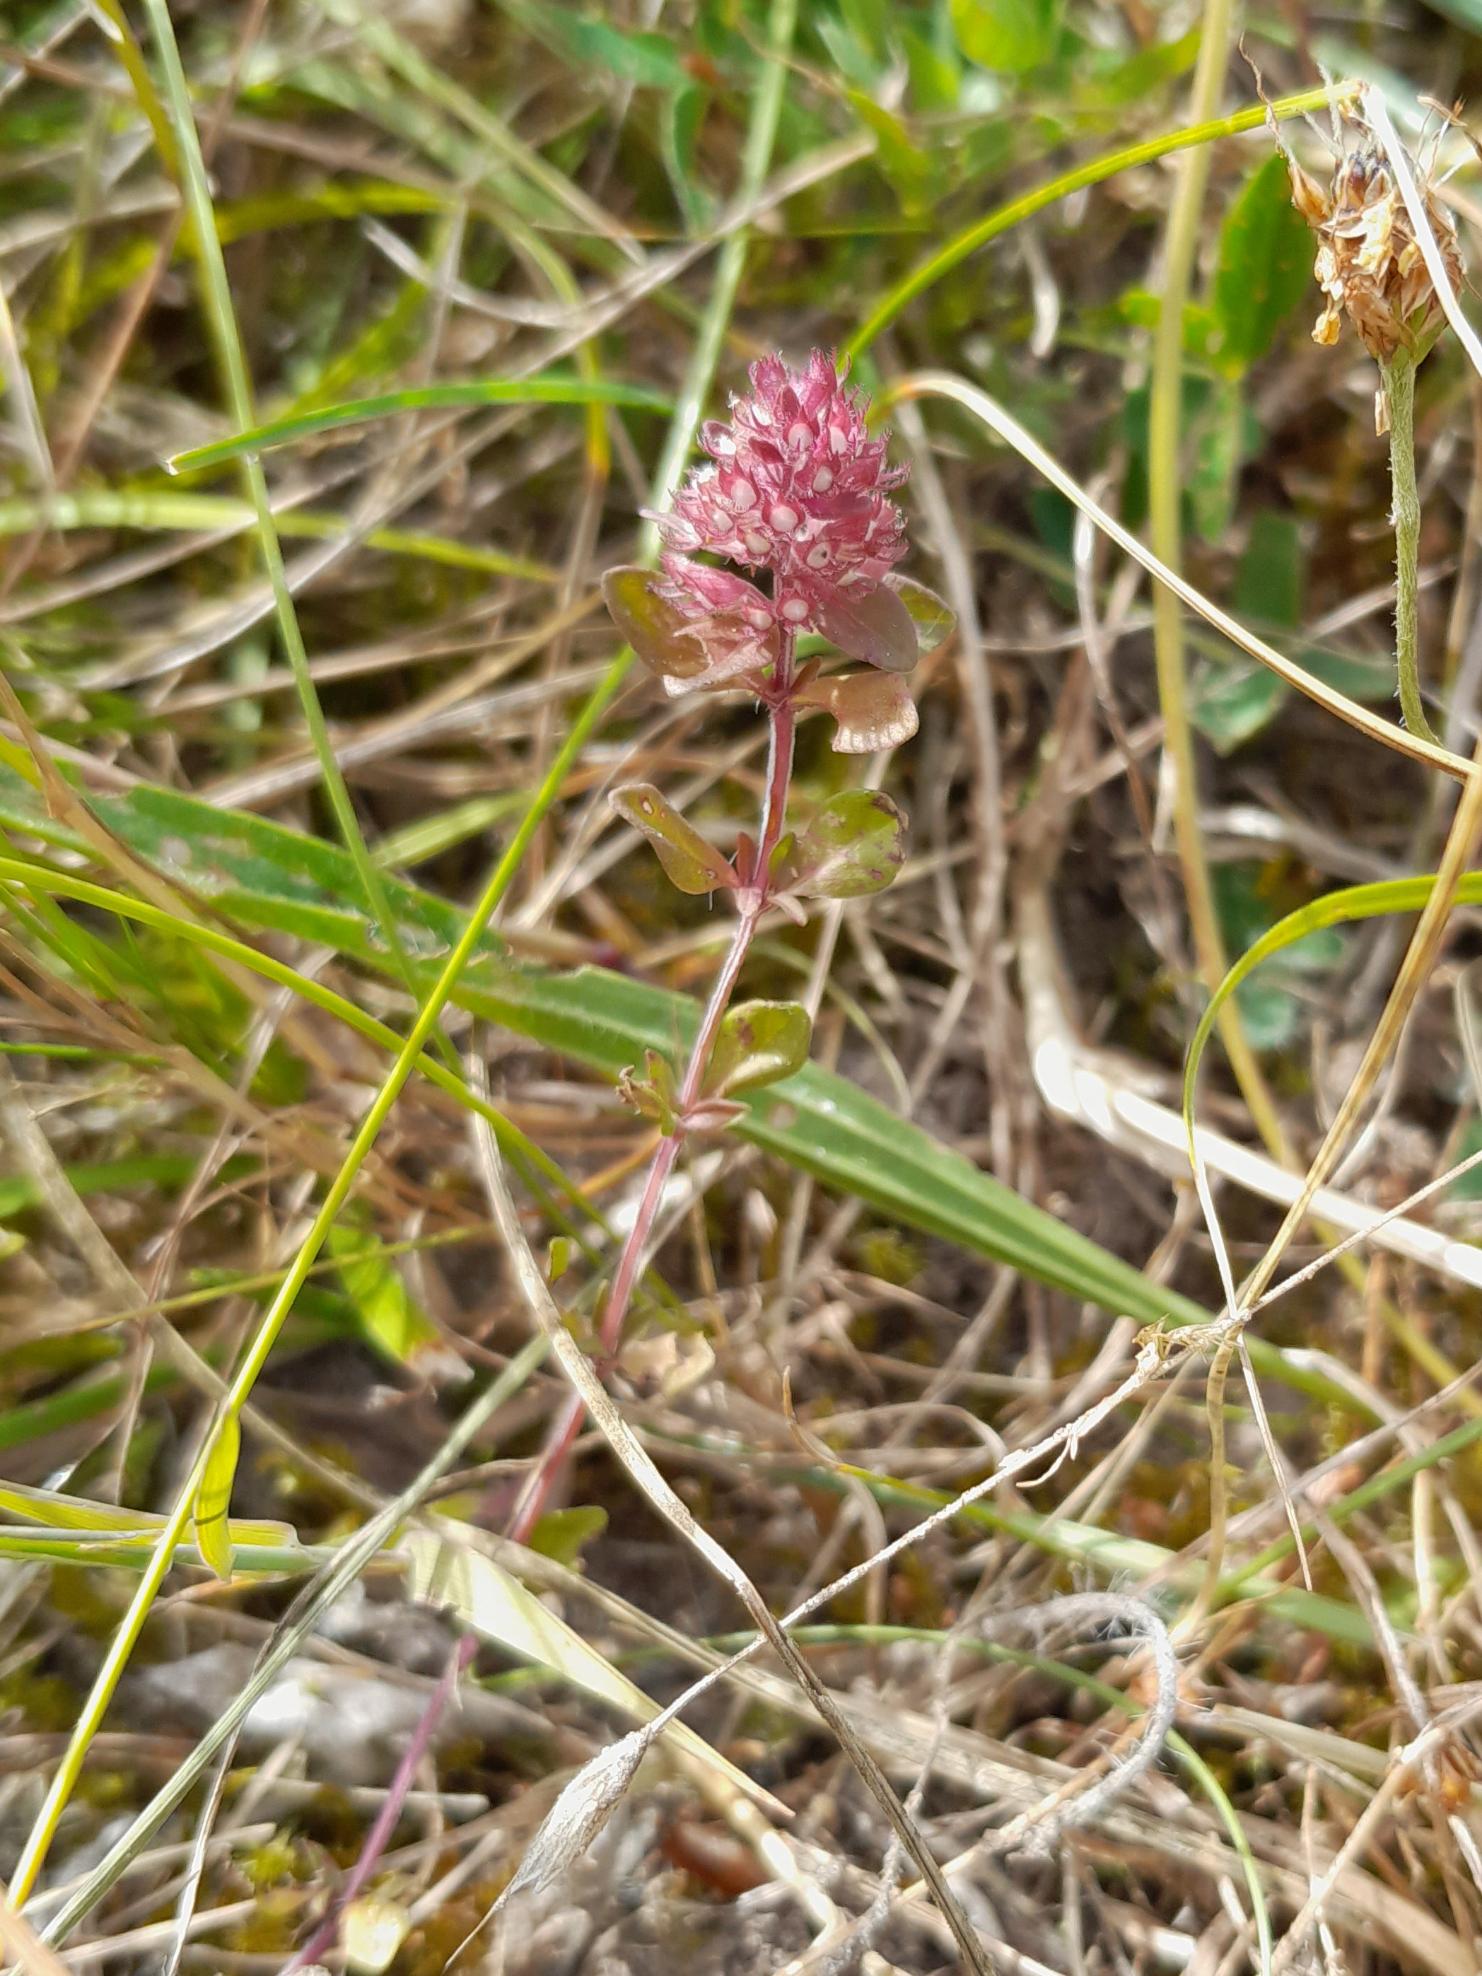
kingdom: Plantae
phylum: Tracheophyta
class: Magnoliopsida
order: Lamiales
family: Lamiaceae
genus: Thymus
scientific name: Thymus pulegioides
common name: Bredbladet timian
